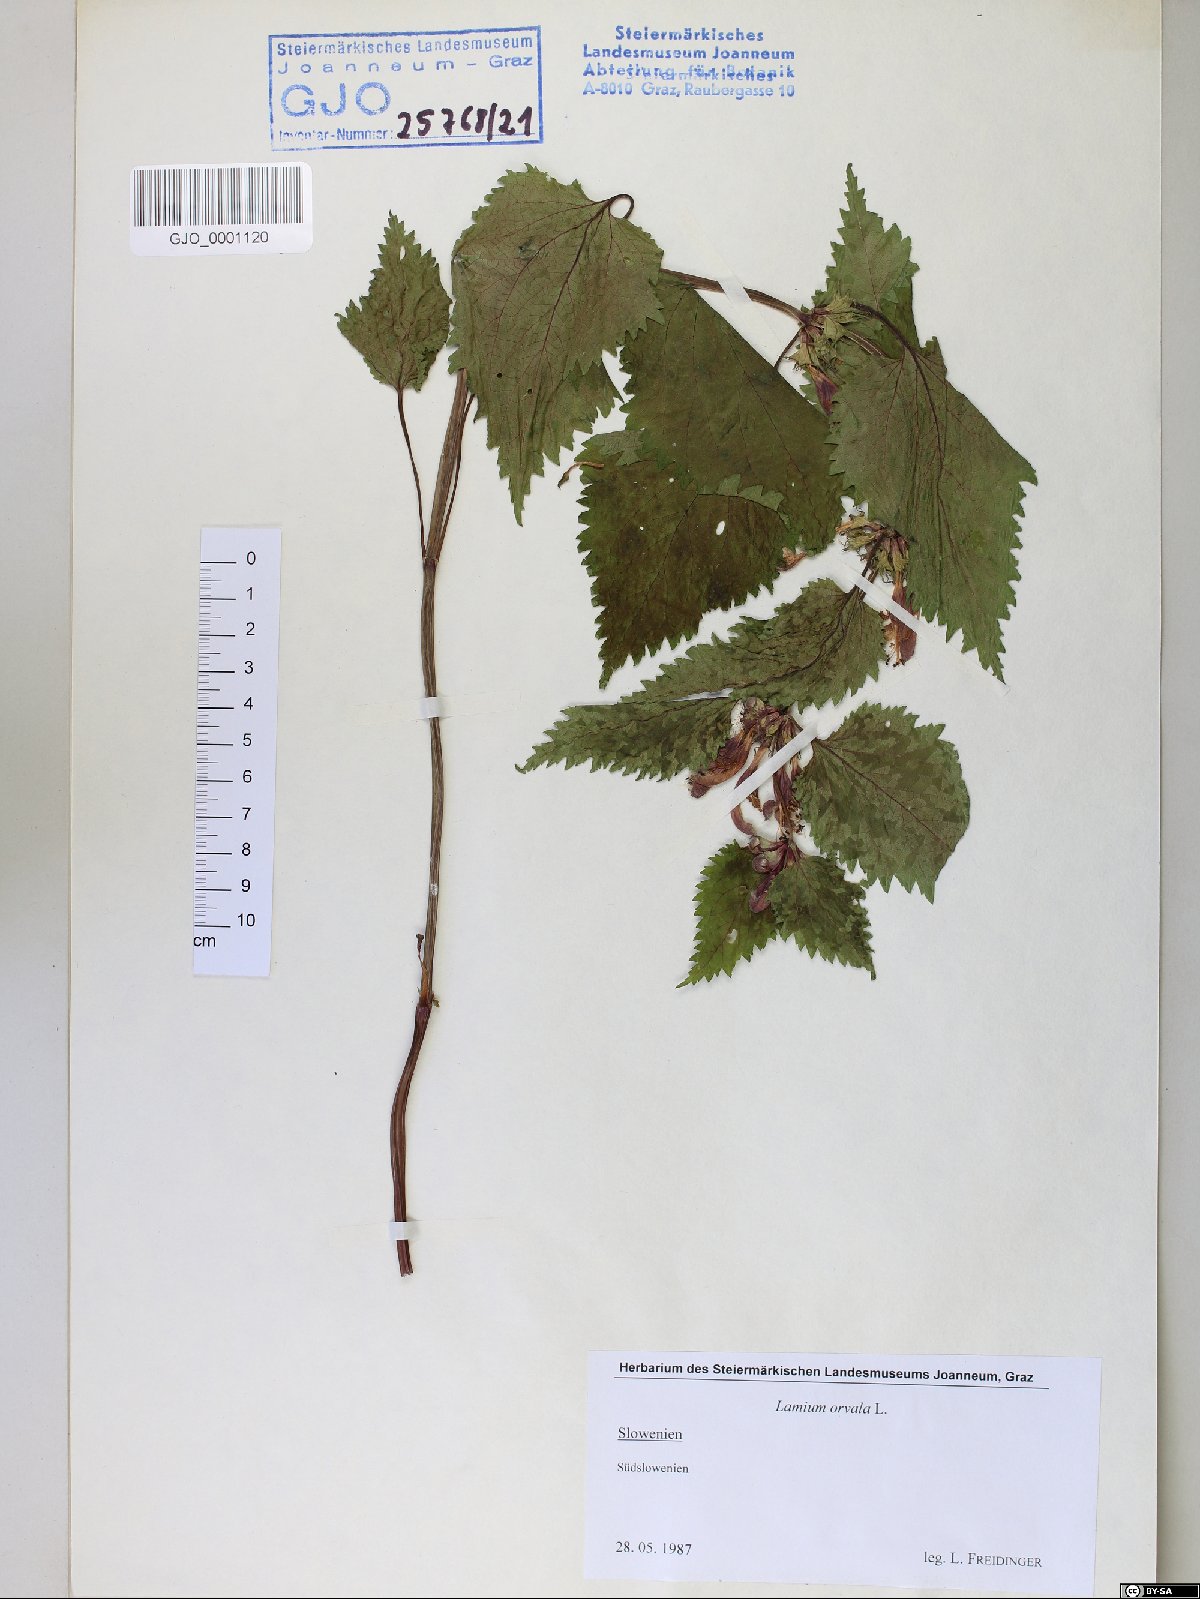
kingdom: Plantae
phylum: Tracheophyta
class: Magnoliopsida
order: Lamiales
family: Lamiaceae
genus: Lamium
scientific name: Lamium orvala
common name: Balm-leaved archangel
